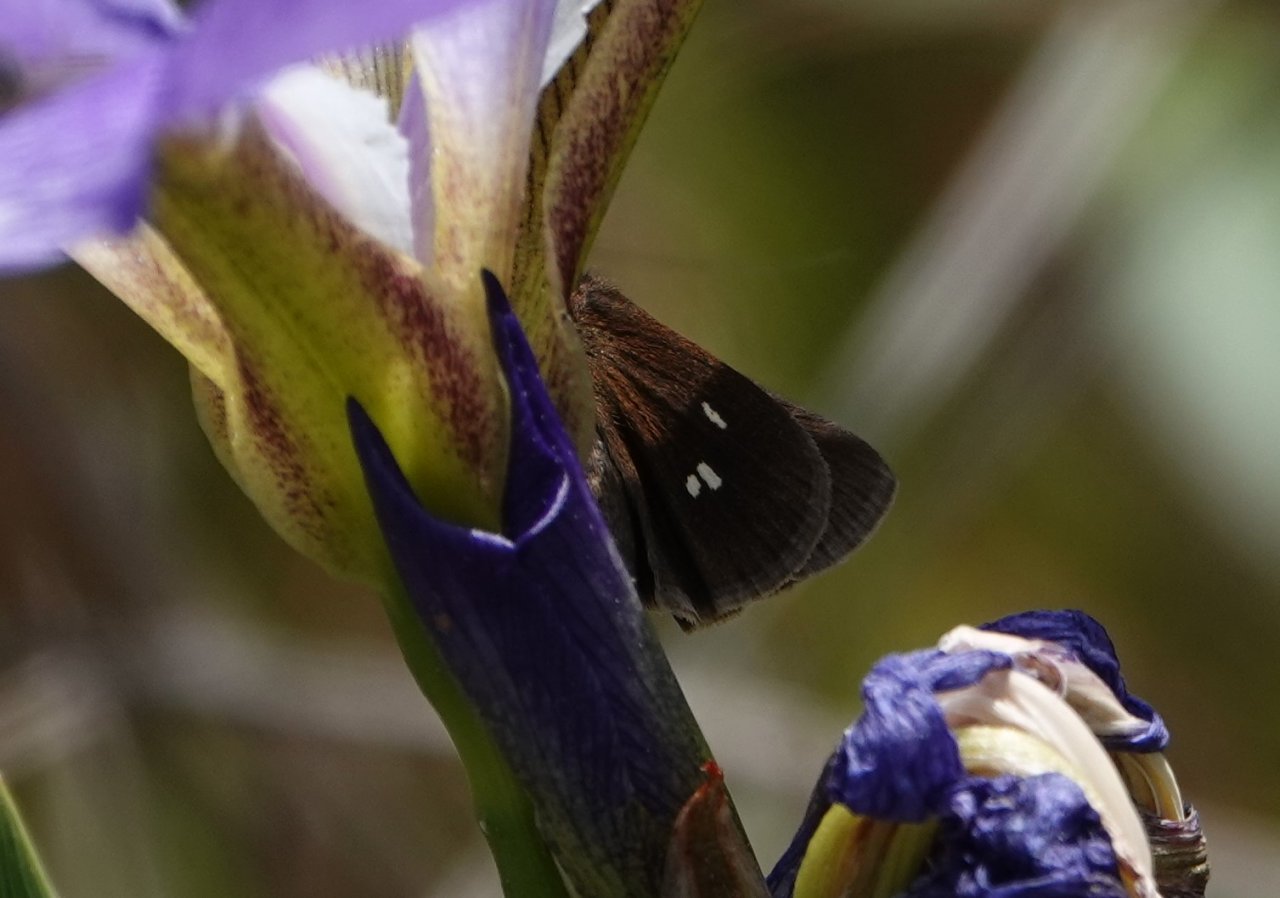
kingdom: Animalia
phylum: Arthropoda
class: Insecta
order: Lepidoptera
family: Hesperiidae
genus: Oligoria
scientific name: Oligoria maculata
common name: Twin-spot Skipper
